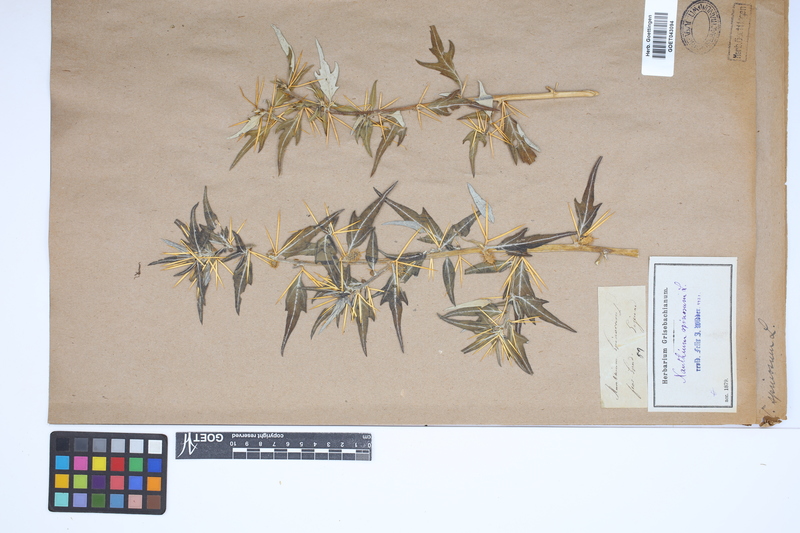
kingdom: Plantae
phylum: Tracheophyta
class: Magnoliopsida
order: Asterales
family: Asteraceae
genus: Xanthium
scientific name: Xanthium spinosum
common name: Spiny cocklebur
